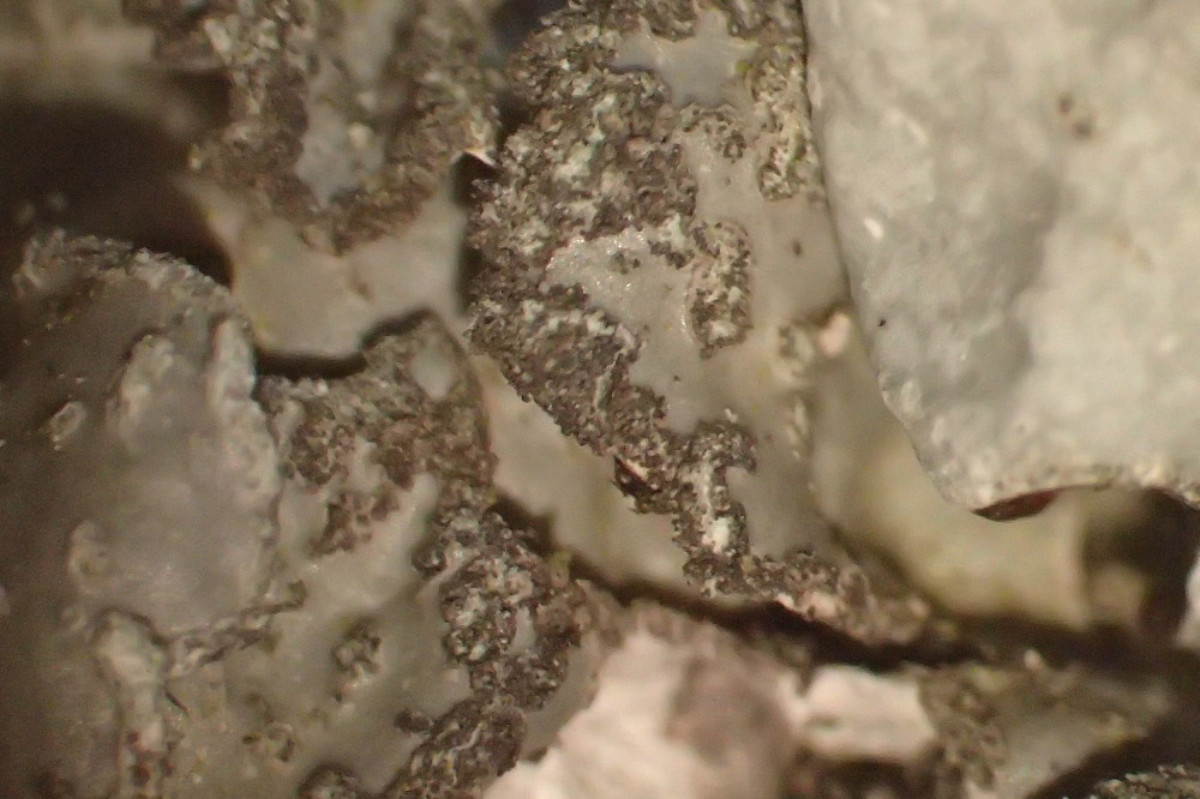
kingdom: Fungi
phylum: Ascomycota
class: Lecanoromycetes
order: Lecanorales
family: Parmeliaceae
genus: Parmelia
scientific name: Parmelia sulcata
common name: rynket skållav
